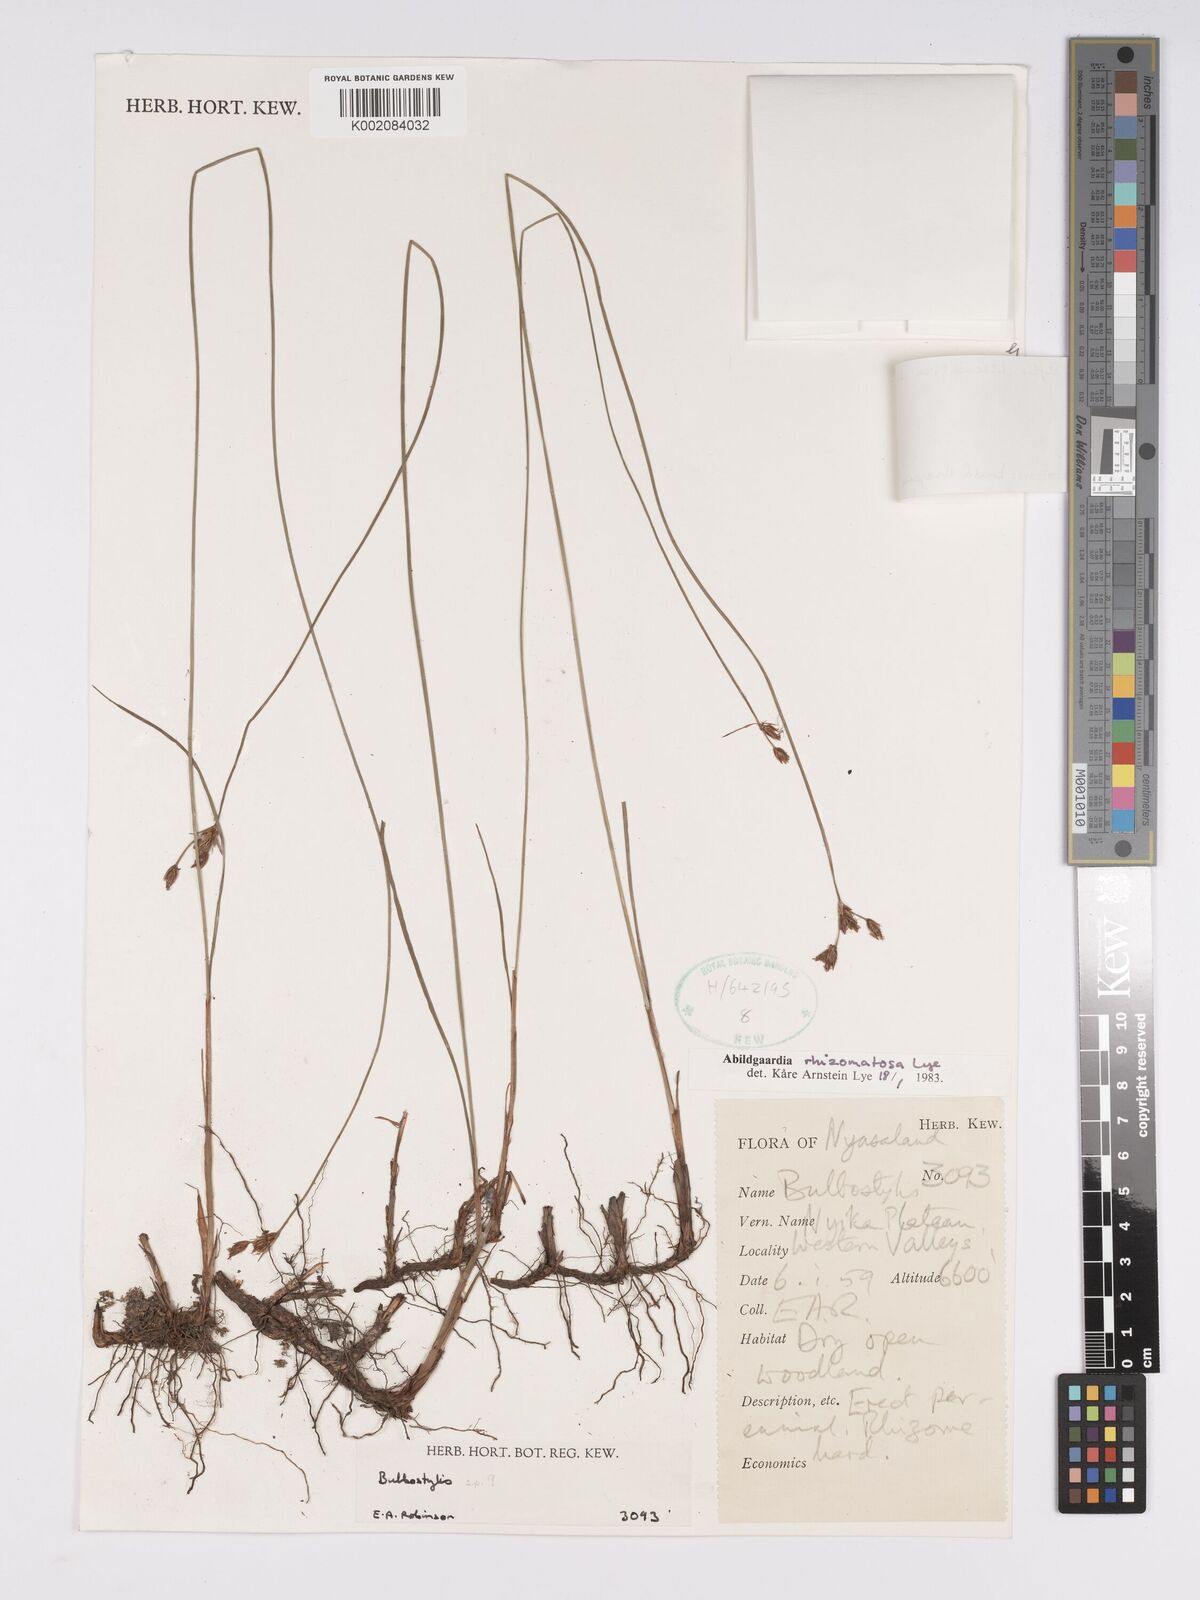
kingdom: Plantae
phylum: Tracheophyta
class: Liliopsida
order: Poales
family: Cyperaceae
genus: Bulbostylis
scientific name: Bulbostylis rhizomatosa
